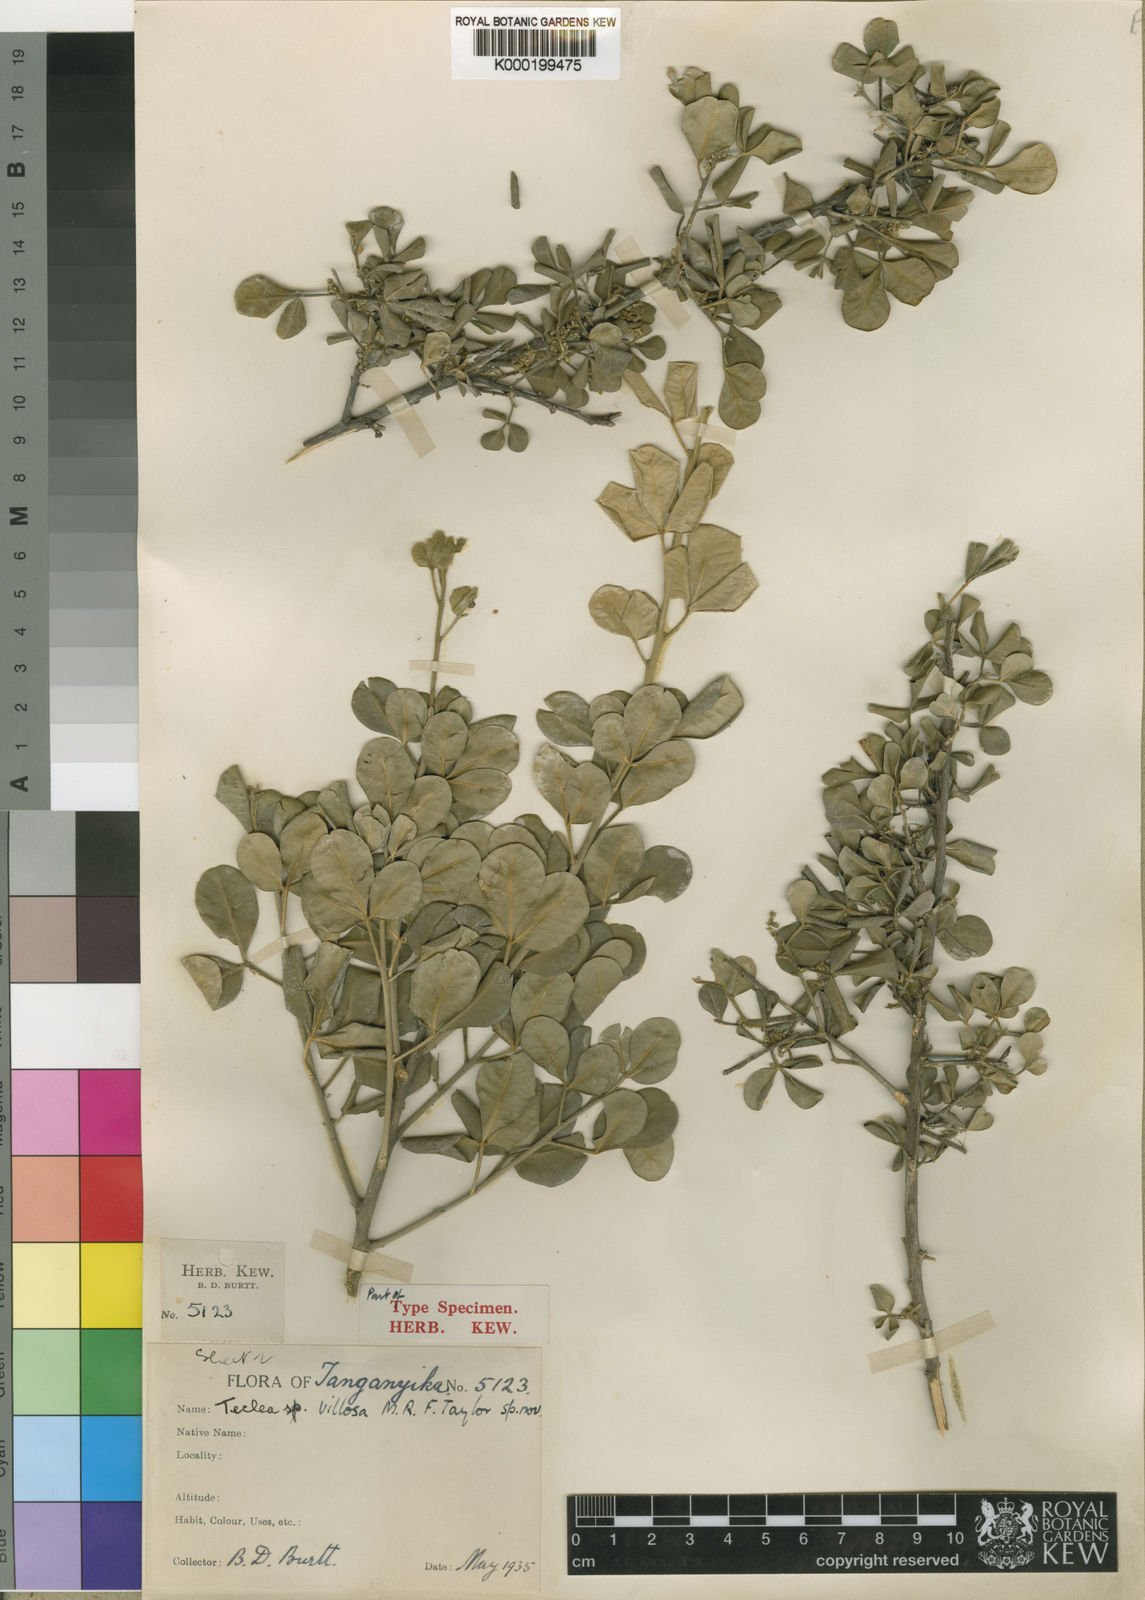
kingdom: Plantae
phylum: Tracheophyta
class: Magnoliopsida
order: Sapindales
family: Rutaceae
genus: Vepris
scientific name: Vepris trichocarpa
